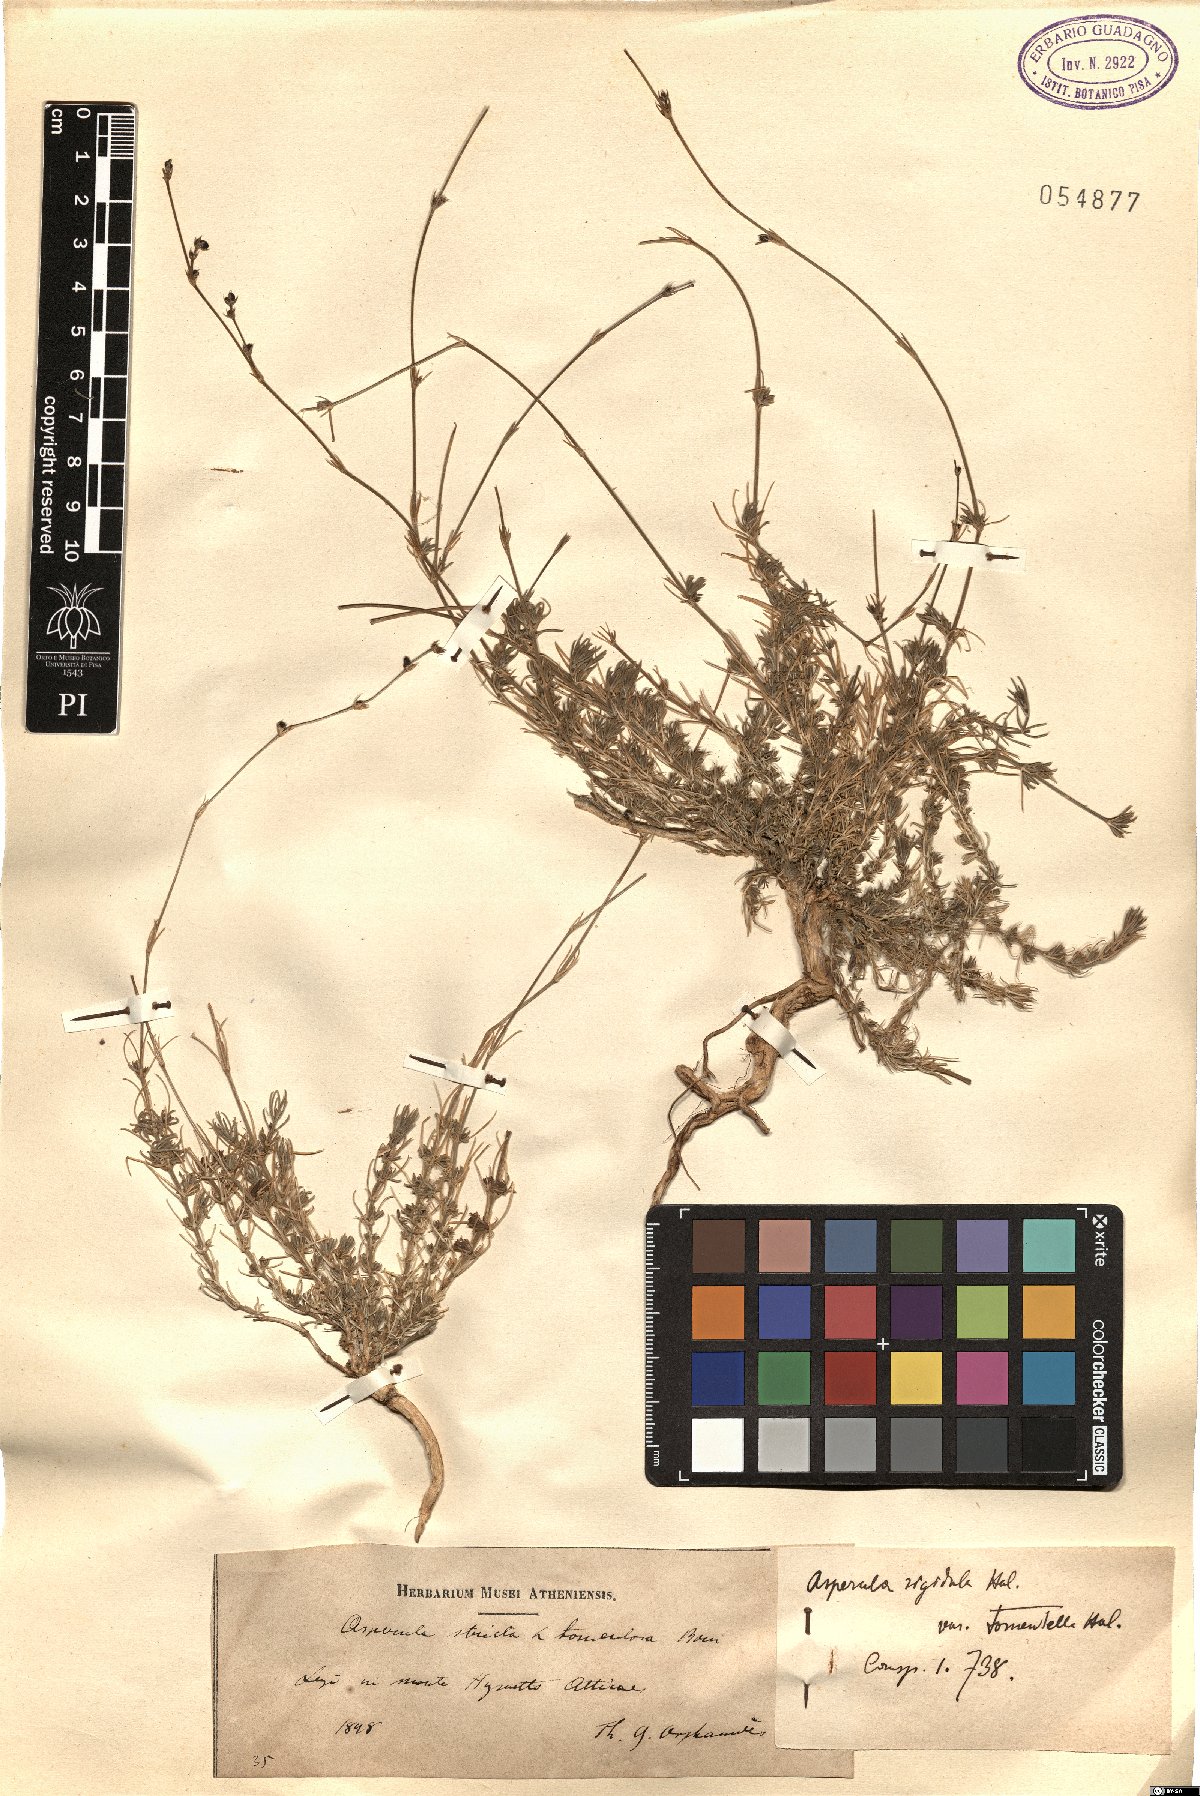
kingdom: Plantae
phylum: Tracheophyta
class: Magnoliopsida
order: Gentianales
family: Rubiaceae
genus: Cynanchica
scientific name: Cynanchica rigidula
